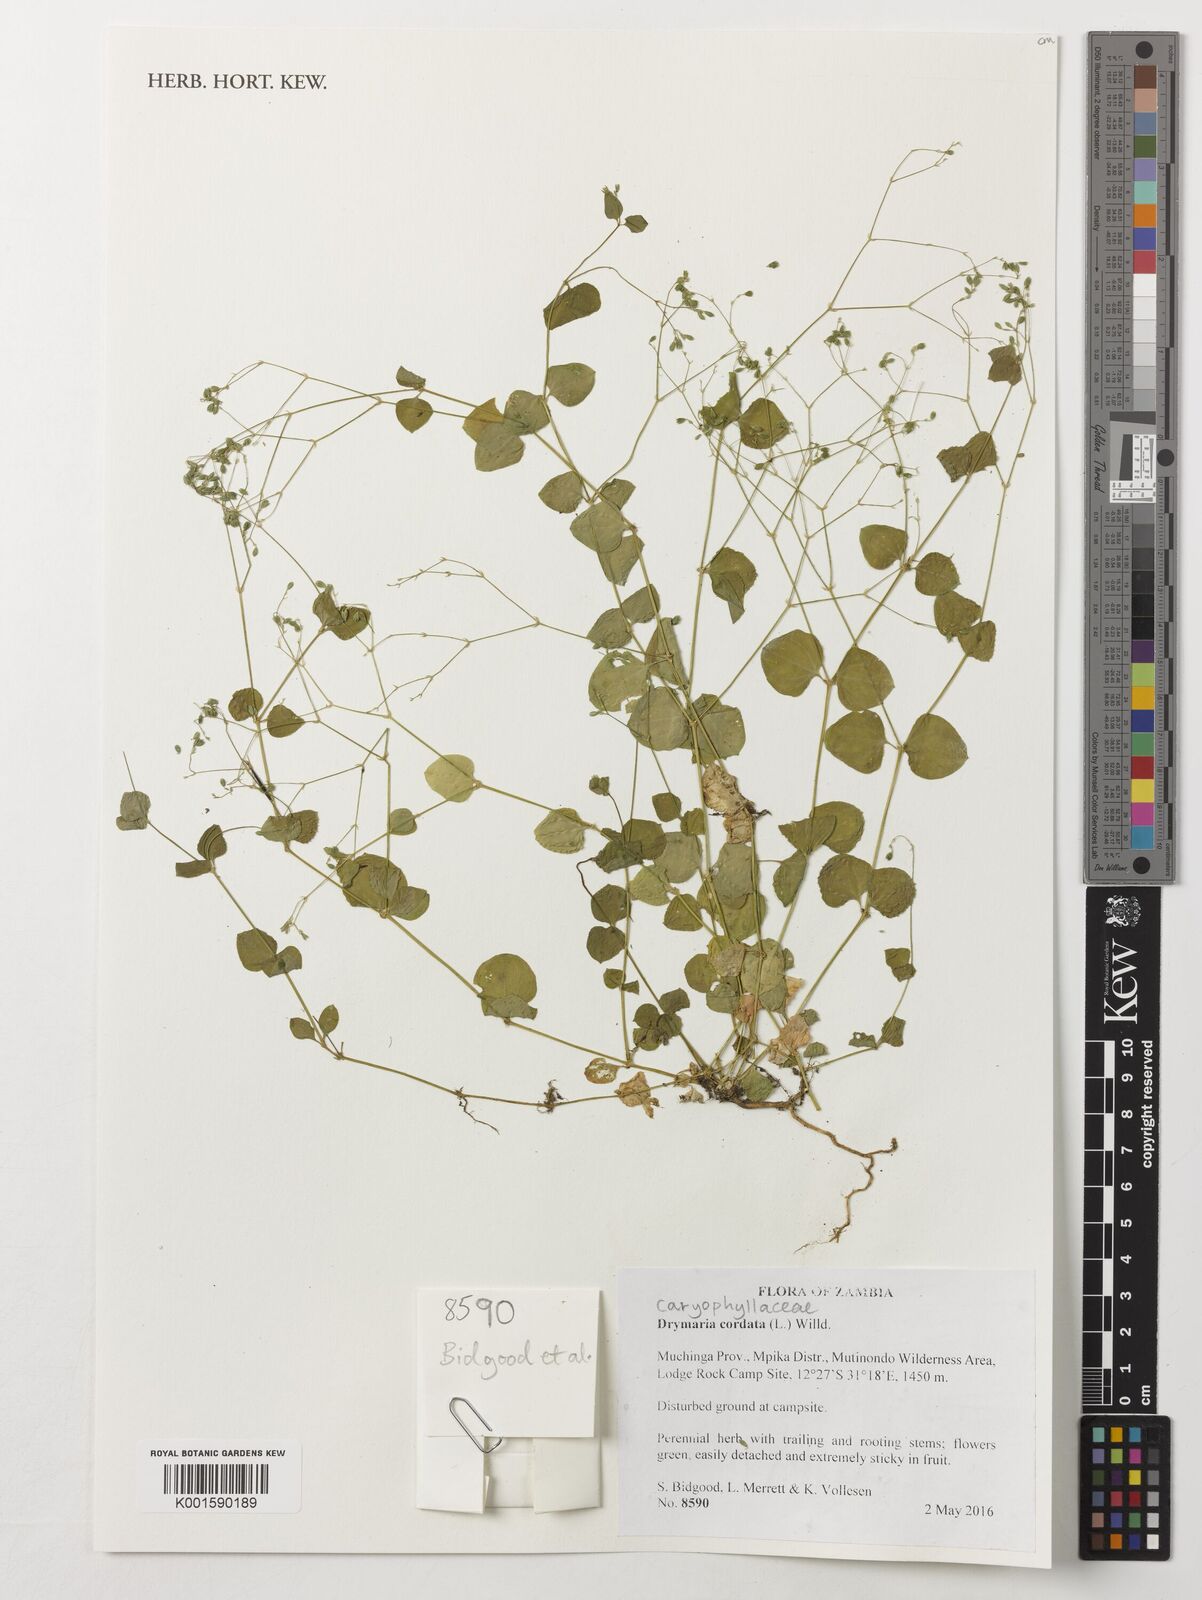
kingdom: Plantae
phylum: Tracheophyta
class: Magnoliopsida
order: Caryophyllales
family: Caryophyllaceae
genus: Drymaria
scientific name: Drymaria cordata
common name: Whitesnow
